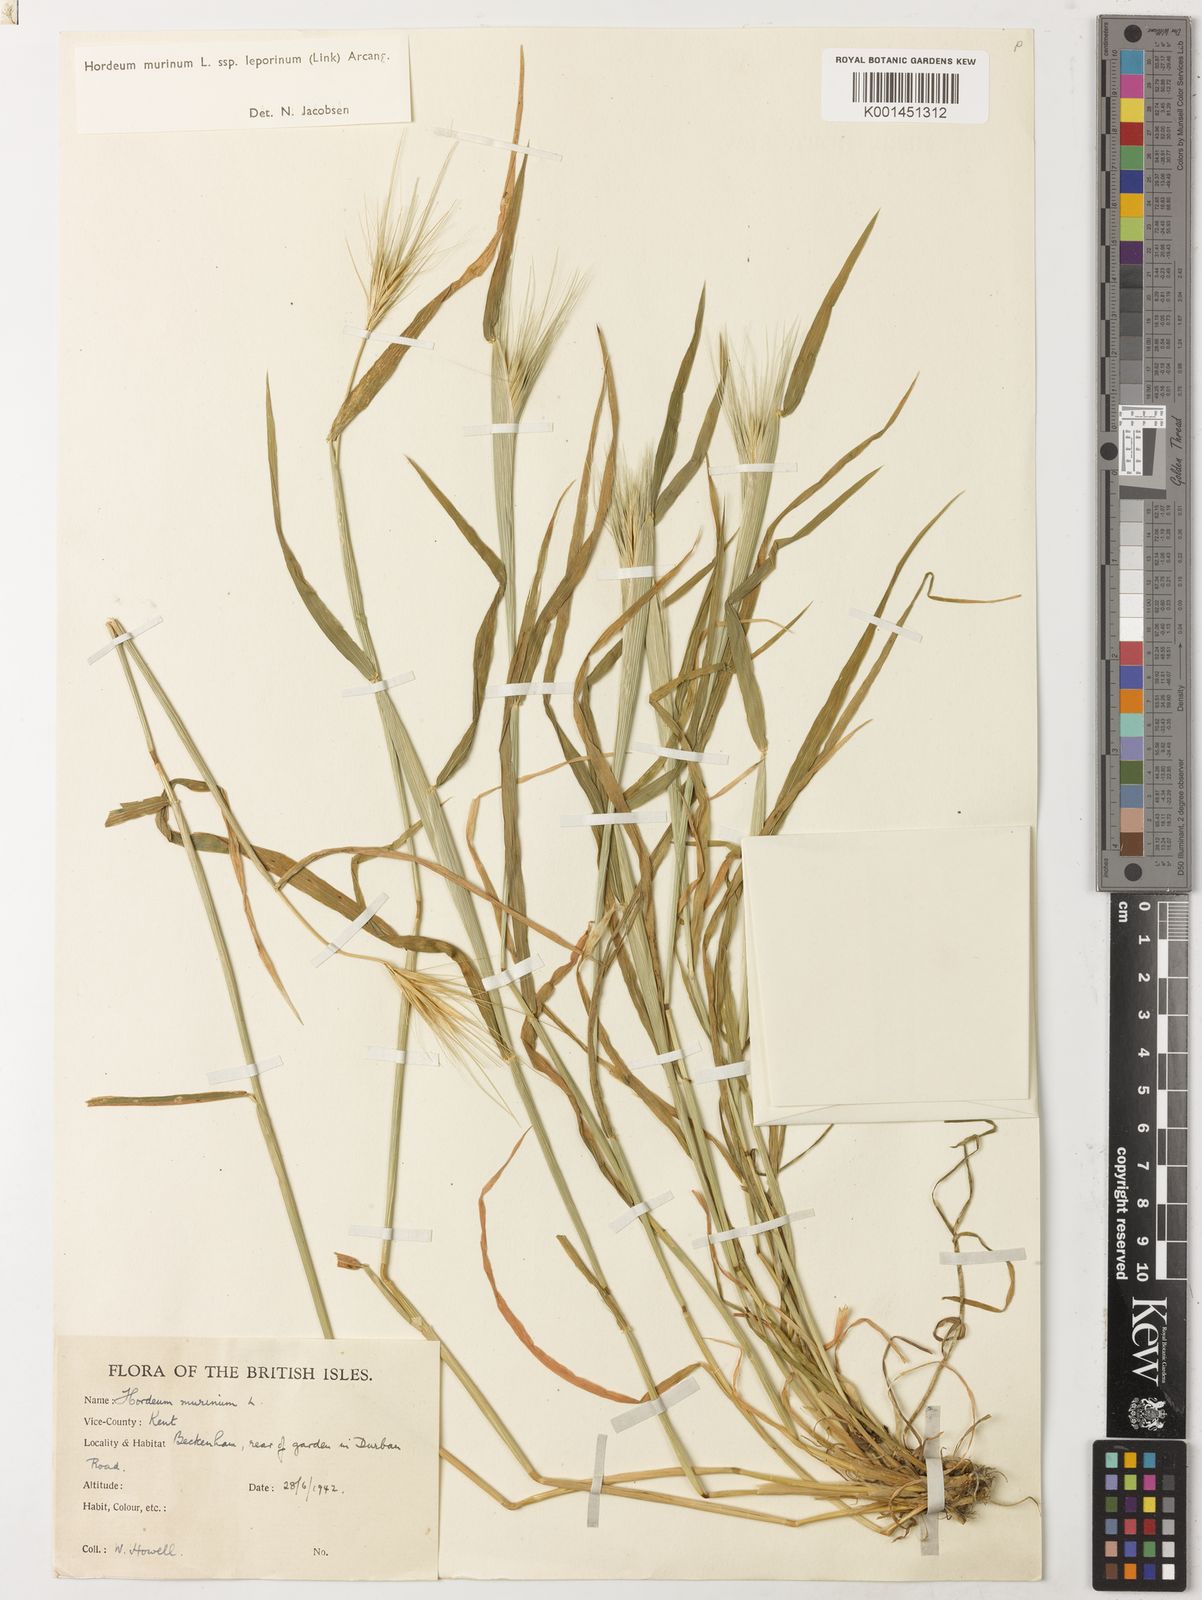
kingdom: Plantae
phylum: Tracheophyta
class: Liliopsida
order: Poales
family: Poaceae
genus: Hordeum
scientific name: Hordeum murinum
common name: Wall barley
